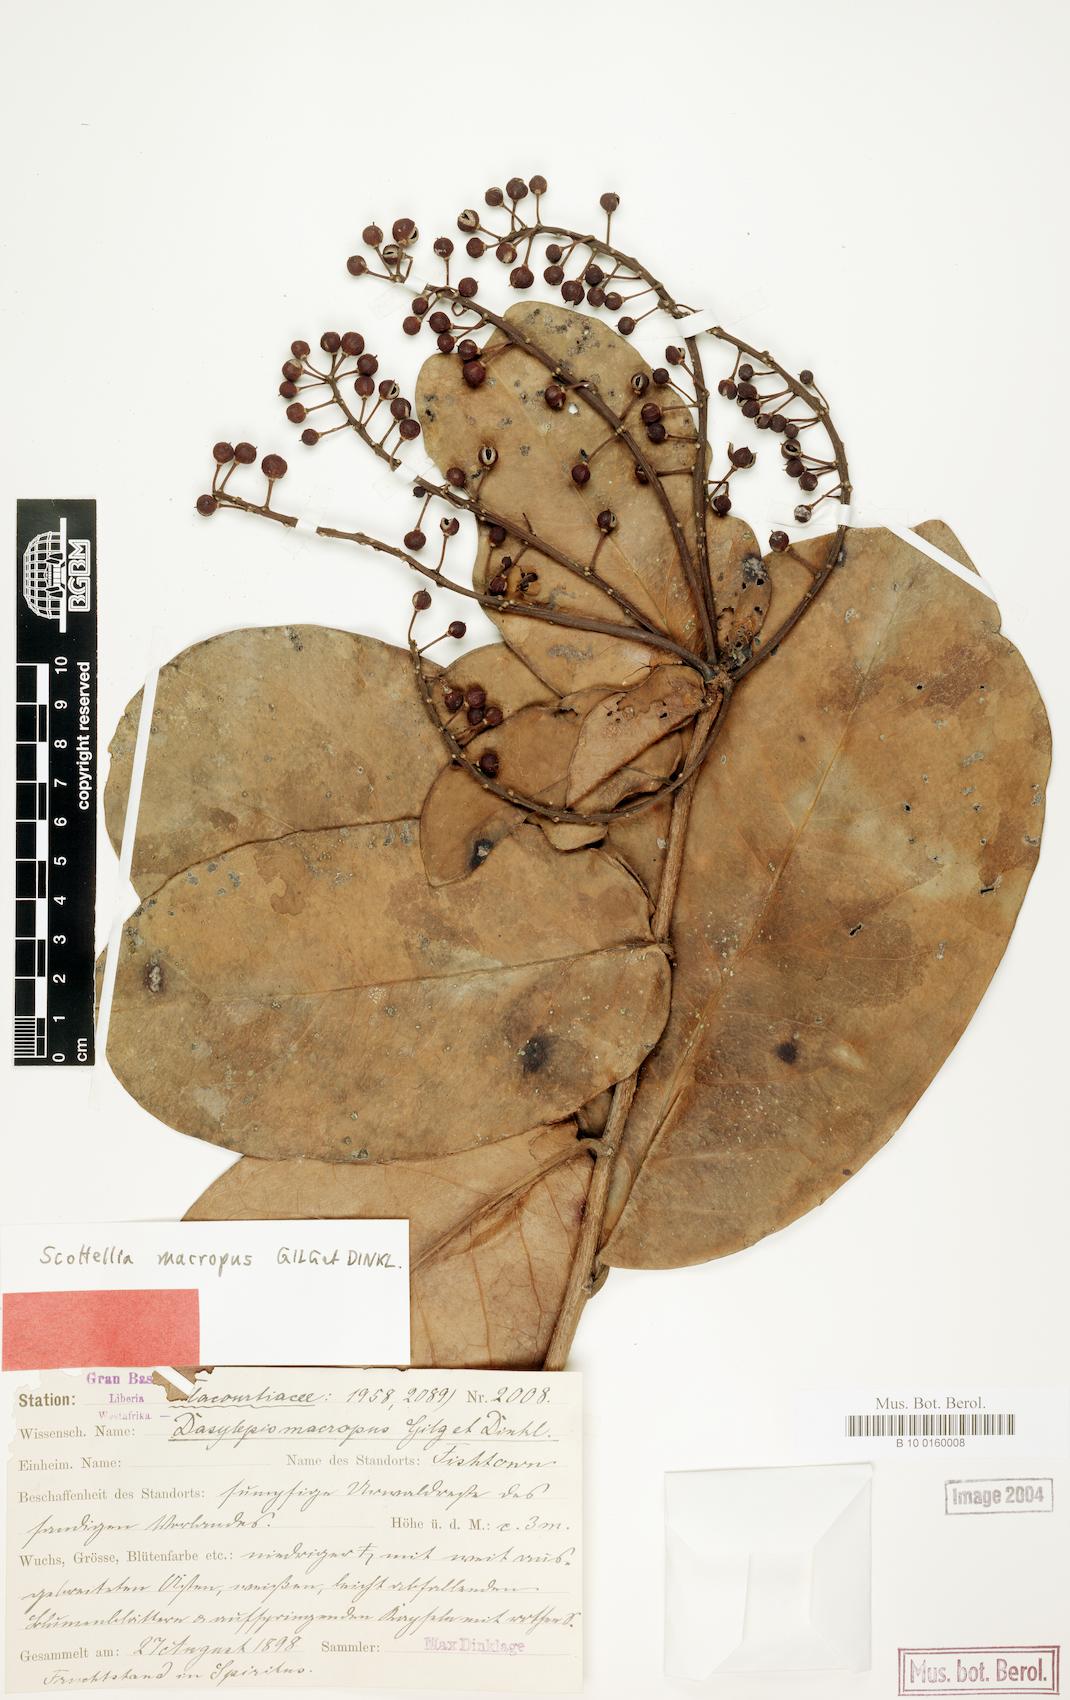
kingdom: Plantae
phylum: Tracheophyta
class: Magnoliopsida
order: Malpighiales
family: Achariaceae
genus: Scottellia
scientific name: Scottellia leonensis
